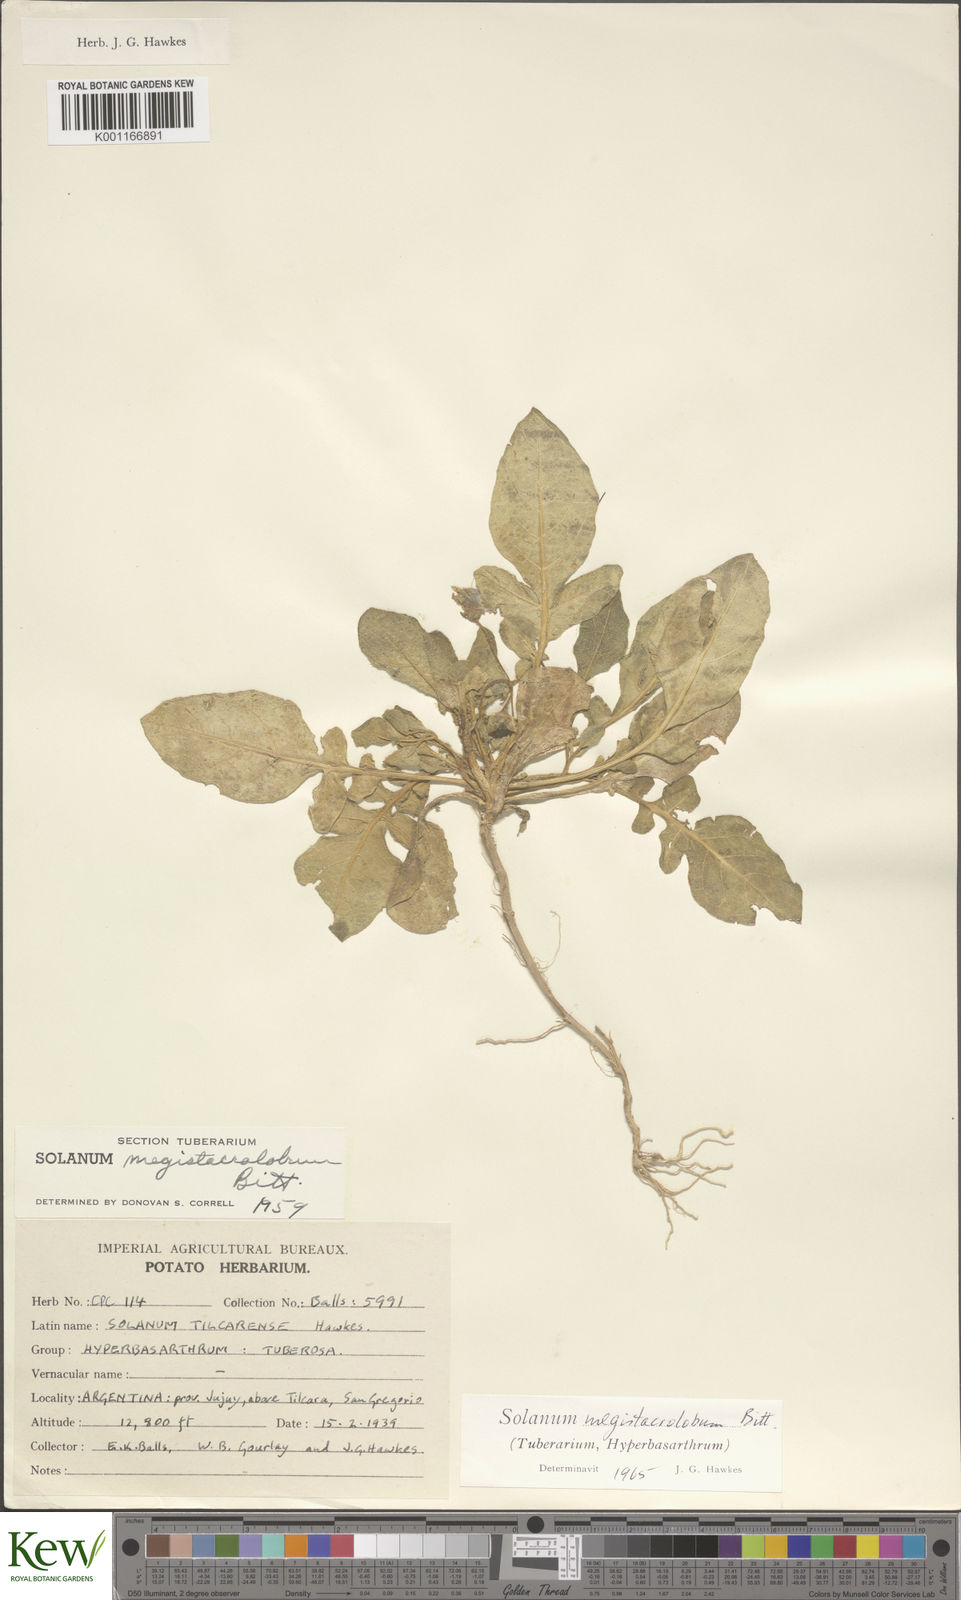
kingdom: Plantae
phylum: Tracheophyta
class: Magnoliopsida
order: Solanales
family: Solanaceae
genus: Solanum
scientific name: Solanum boliviense
